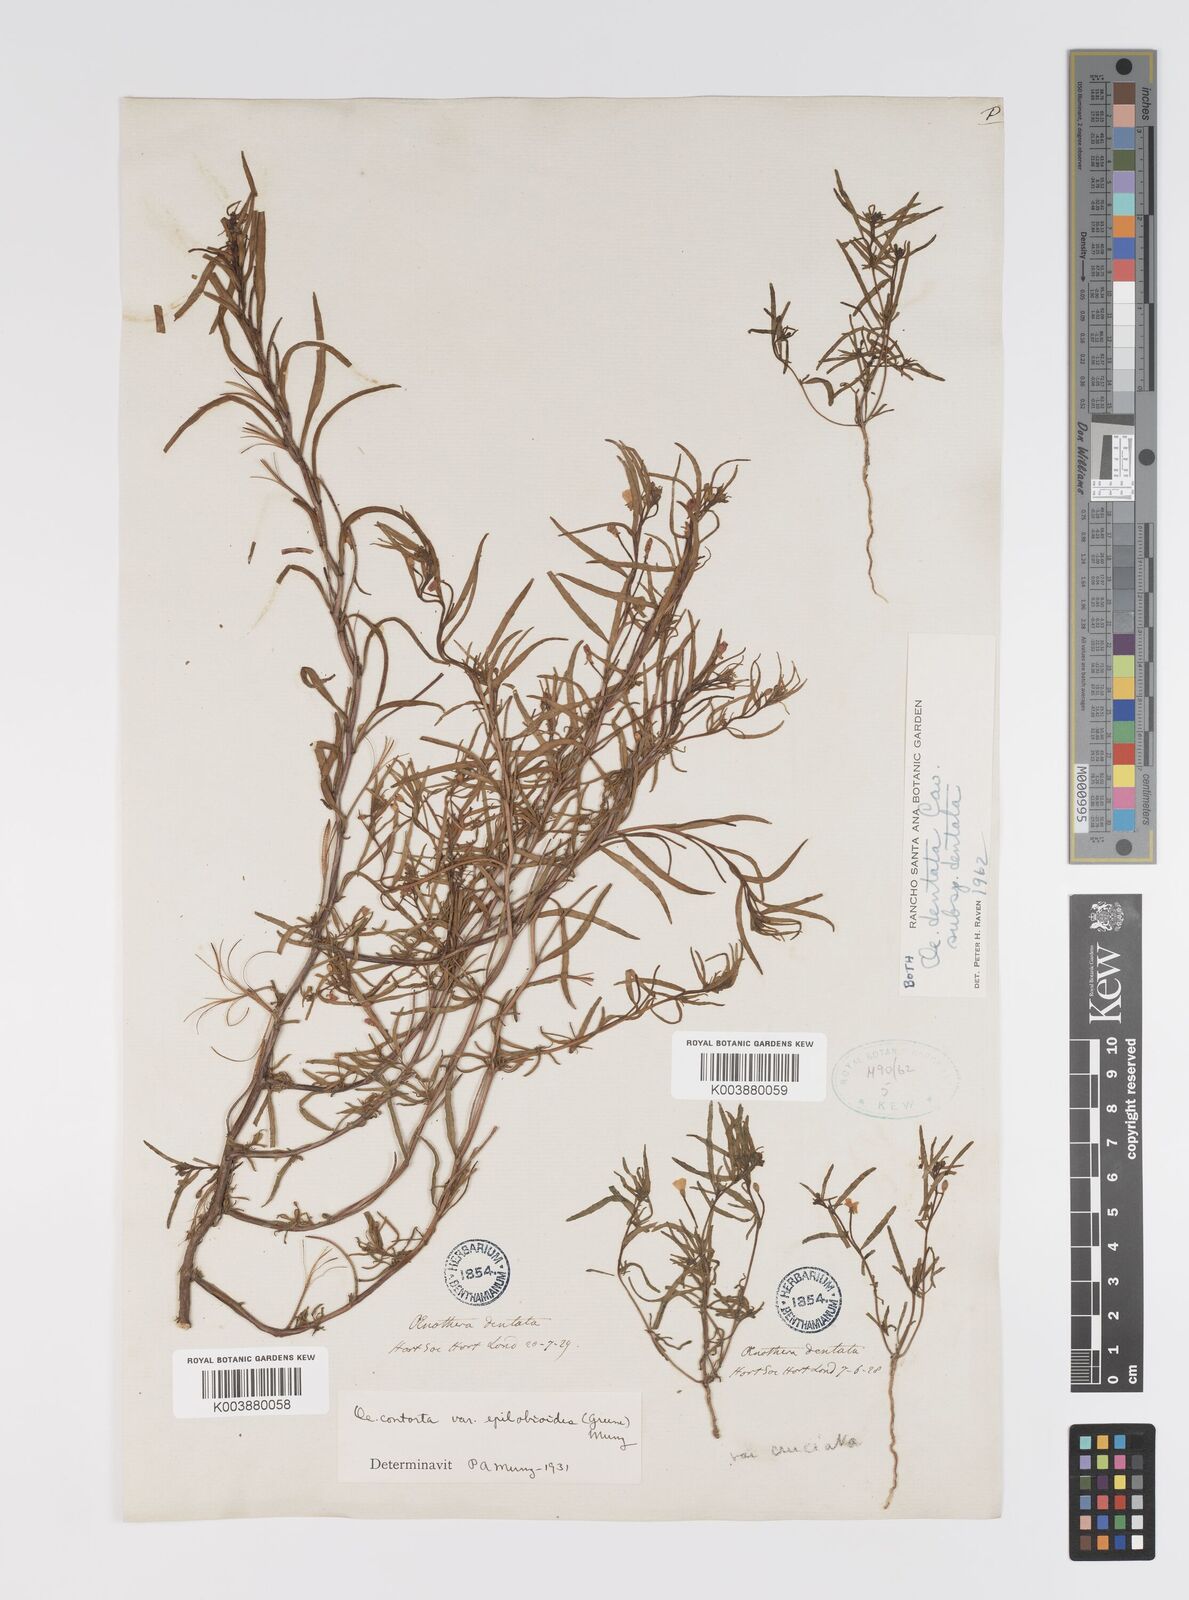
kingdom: Plantae
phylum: Tracheophyta
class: Magnoliopsida
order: Myrtales
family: Onagraceae
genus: Camissonia
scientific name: Camissonia dentata
